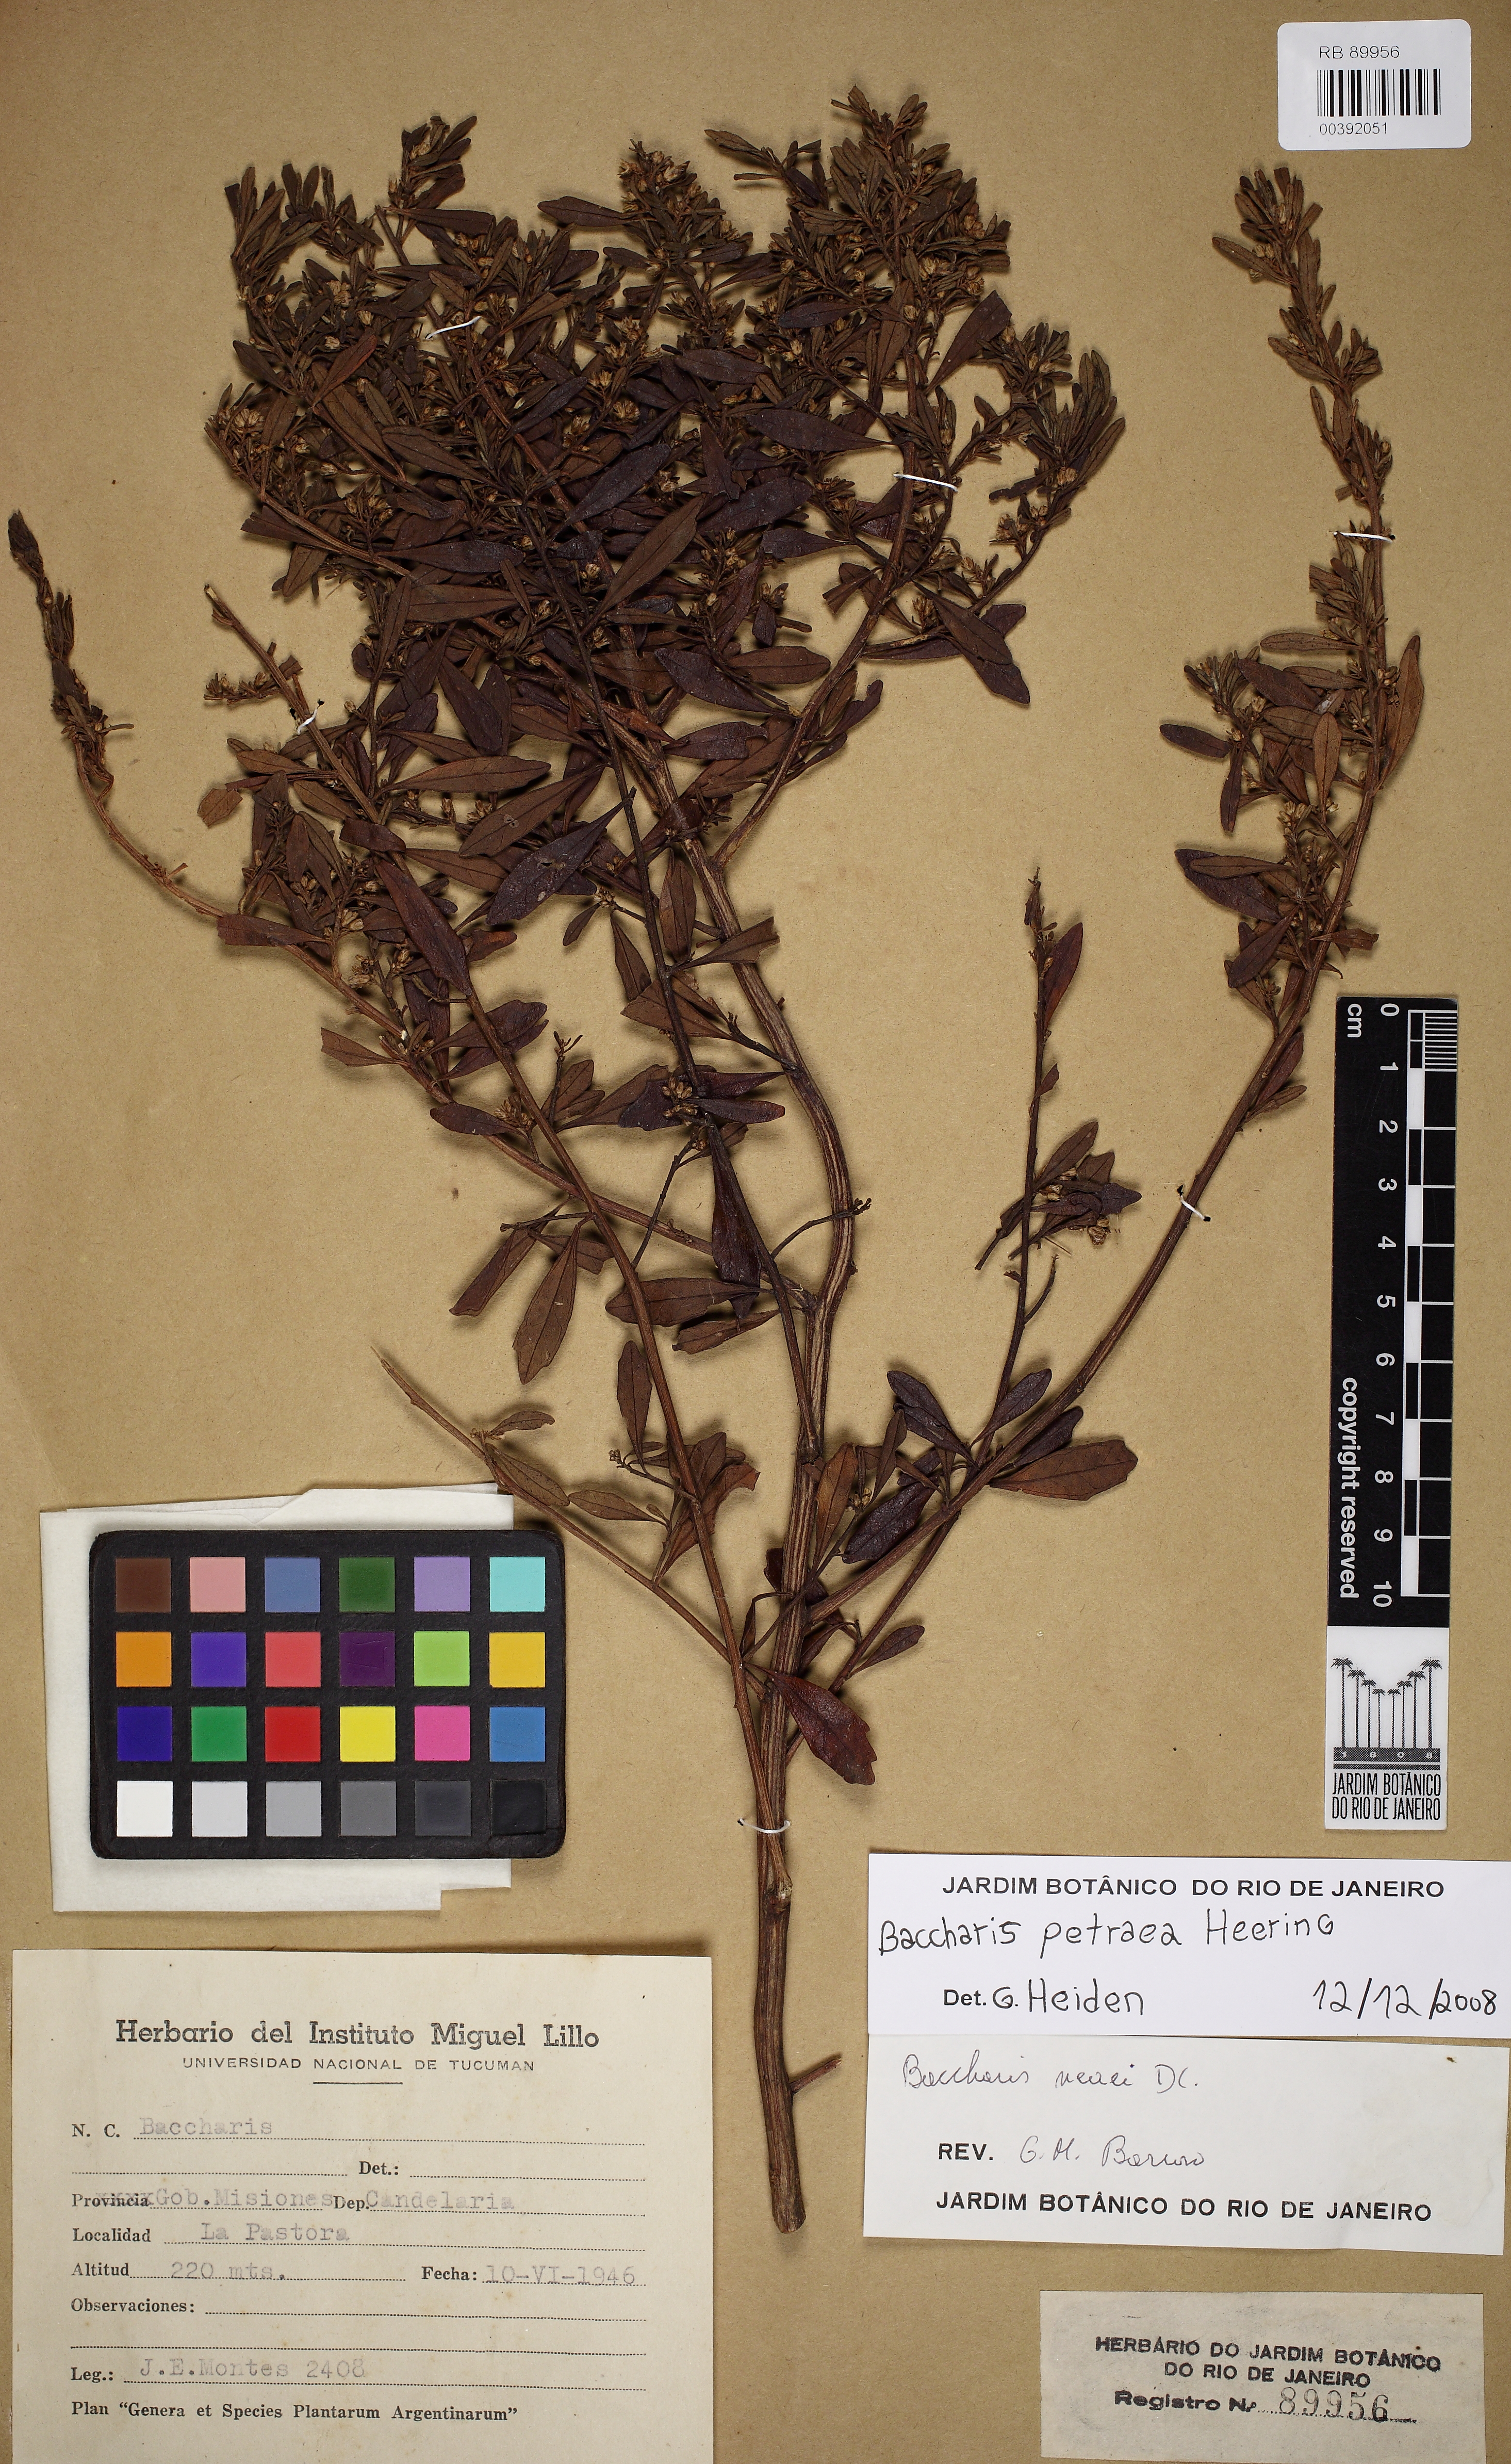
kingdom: Plantae
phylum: Tracheophyta
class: Magnoliopsida
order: Asterales
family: Asteraceae
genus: Baccharis
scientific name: Baccharis petraea
